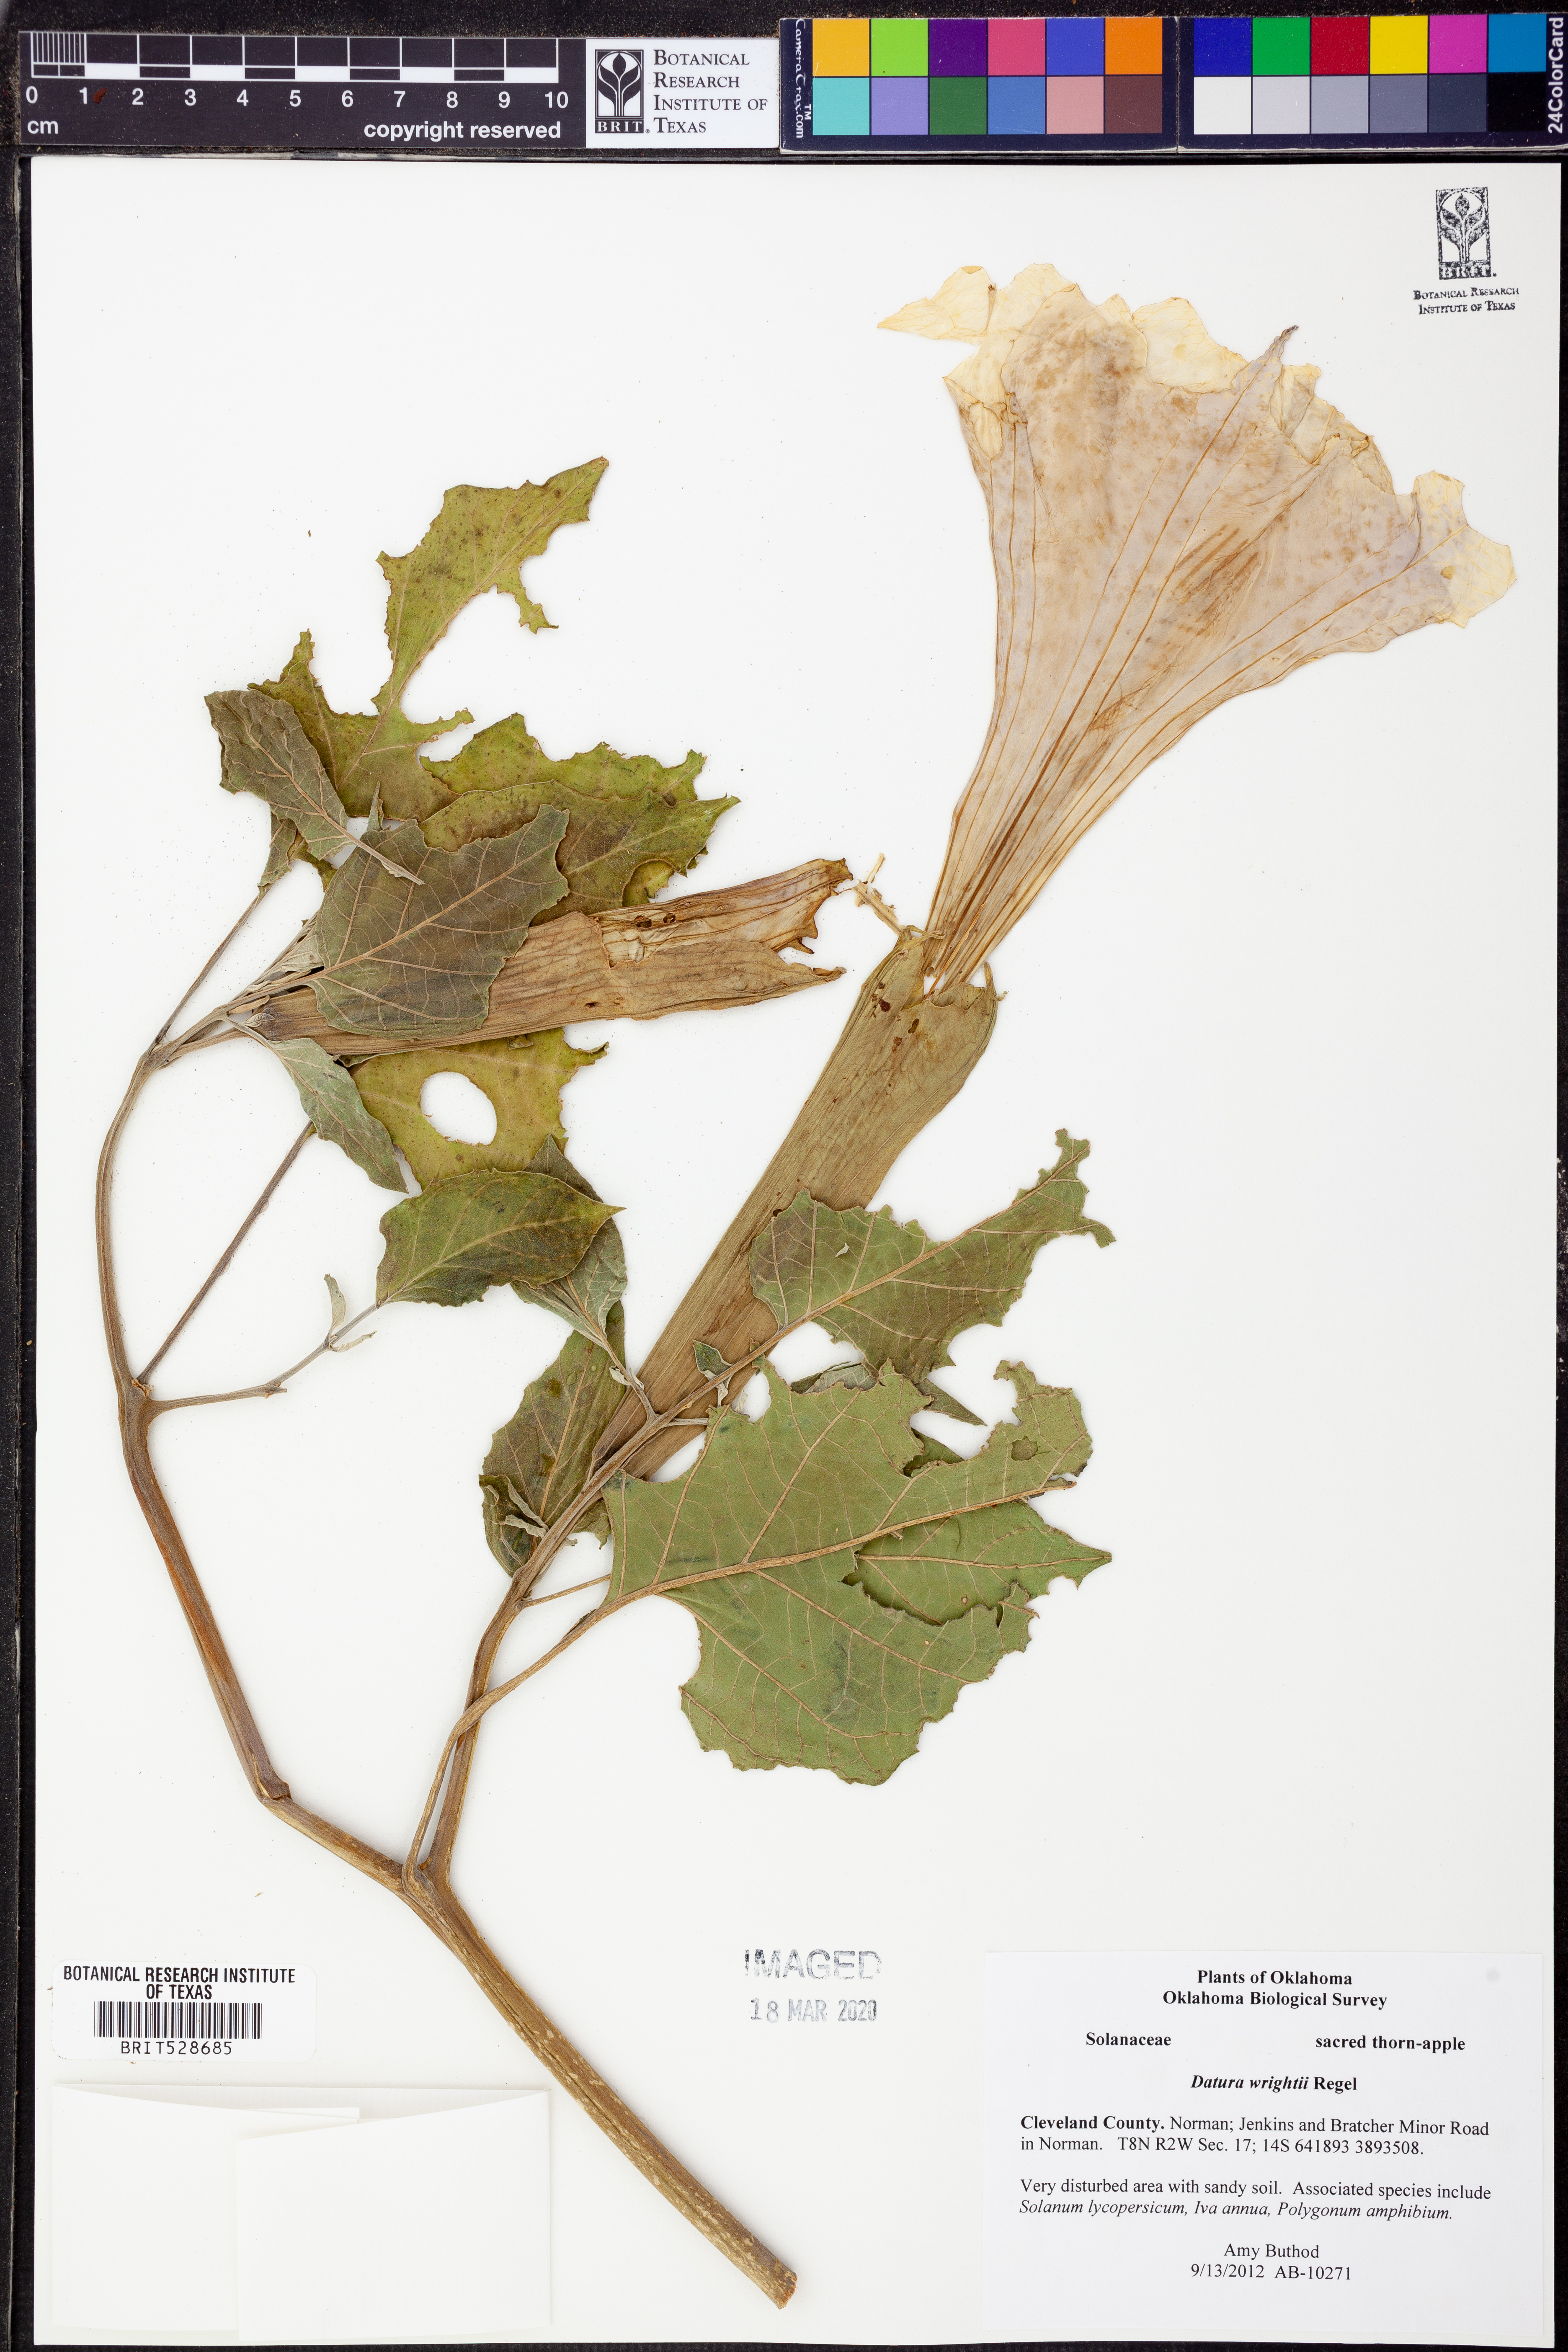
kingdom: Plantae
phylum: Tracheophyta
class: Magnoliopsida
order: Solanales
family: Solanaceae
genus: Datura
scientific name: Datura wrightii
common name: Sacred thorn-apple
